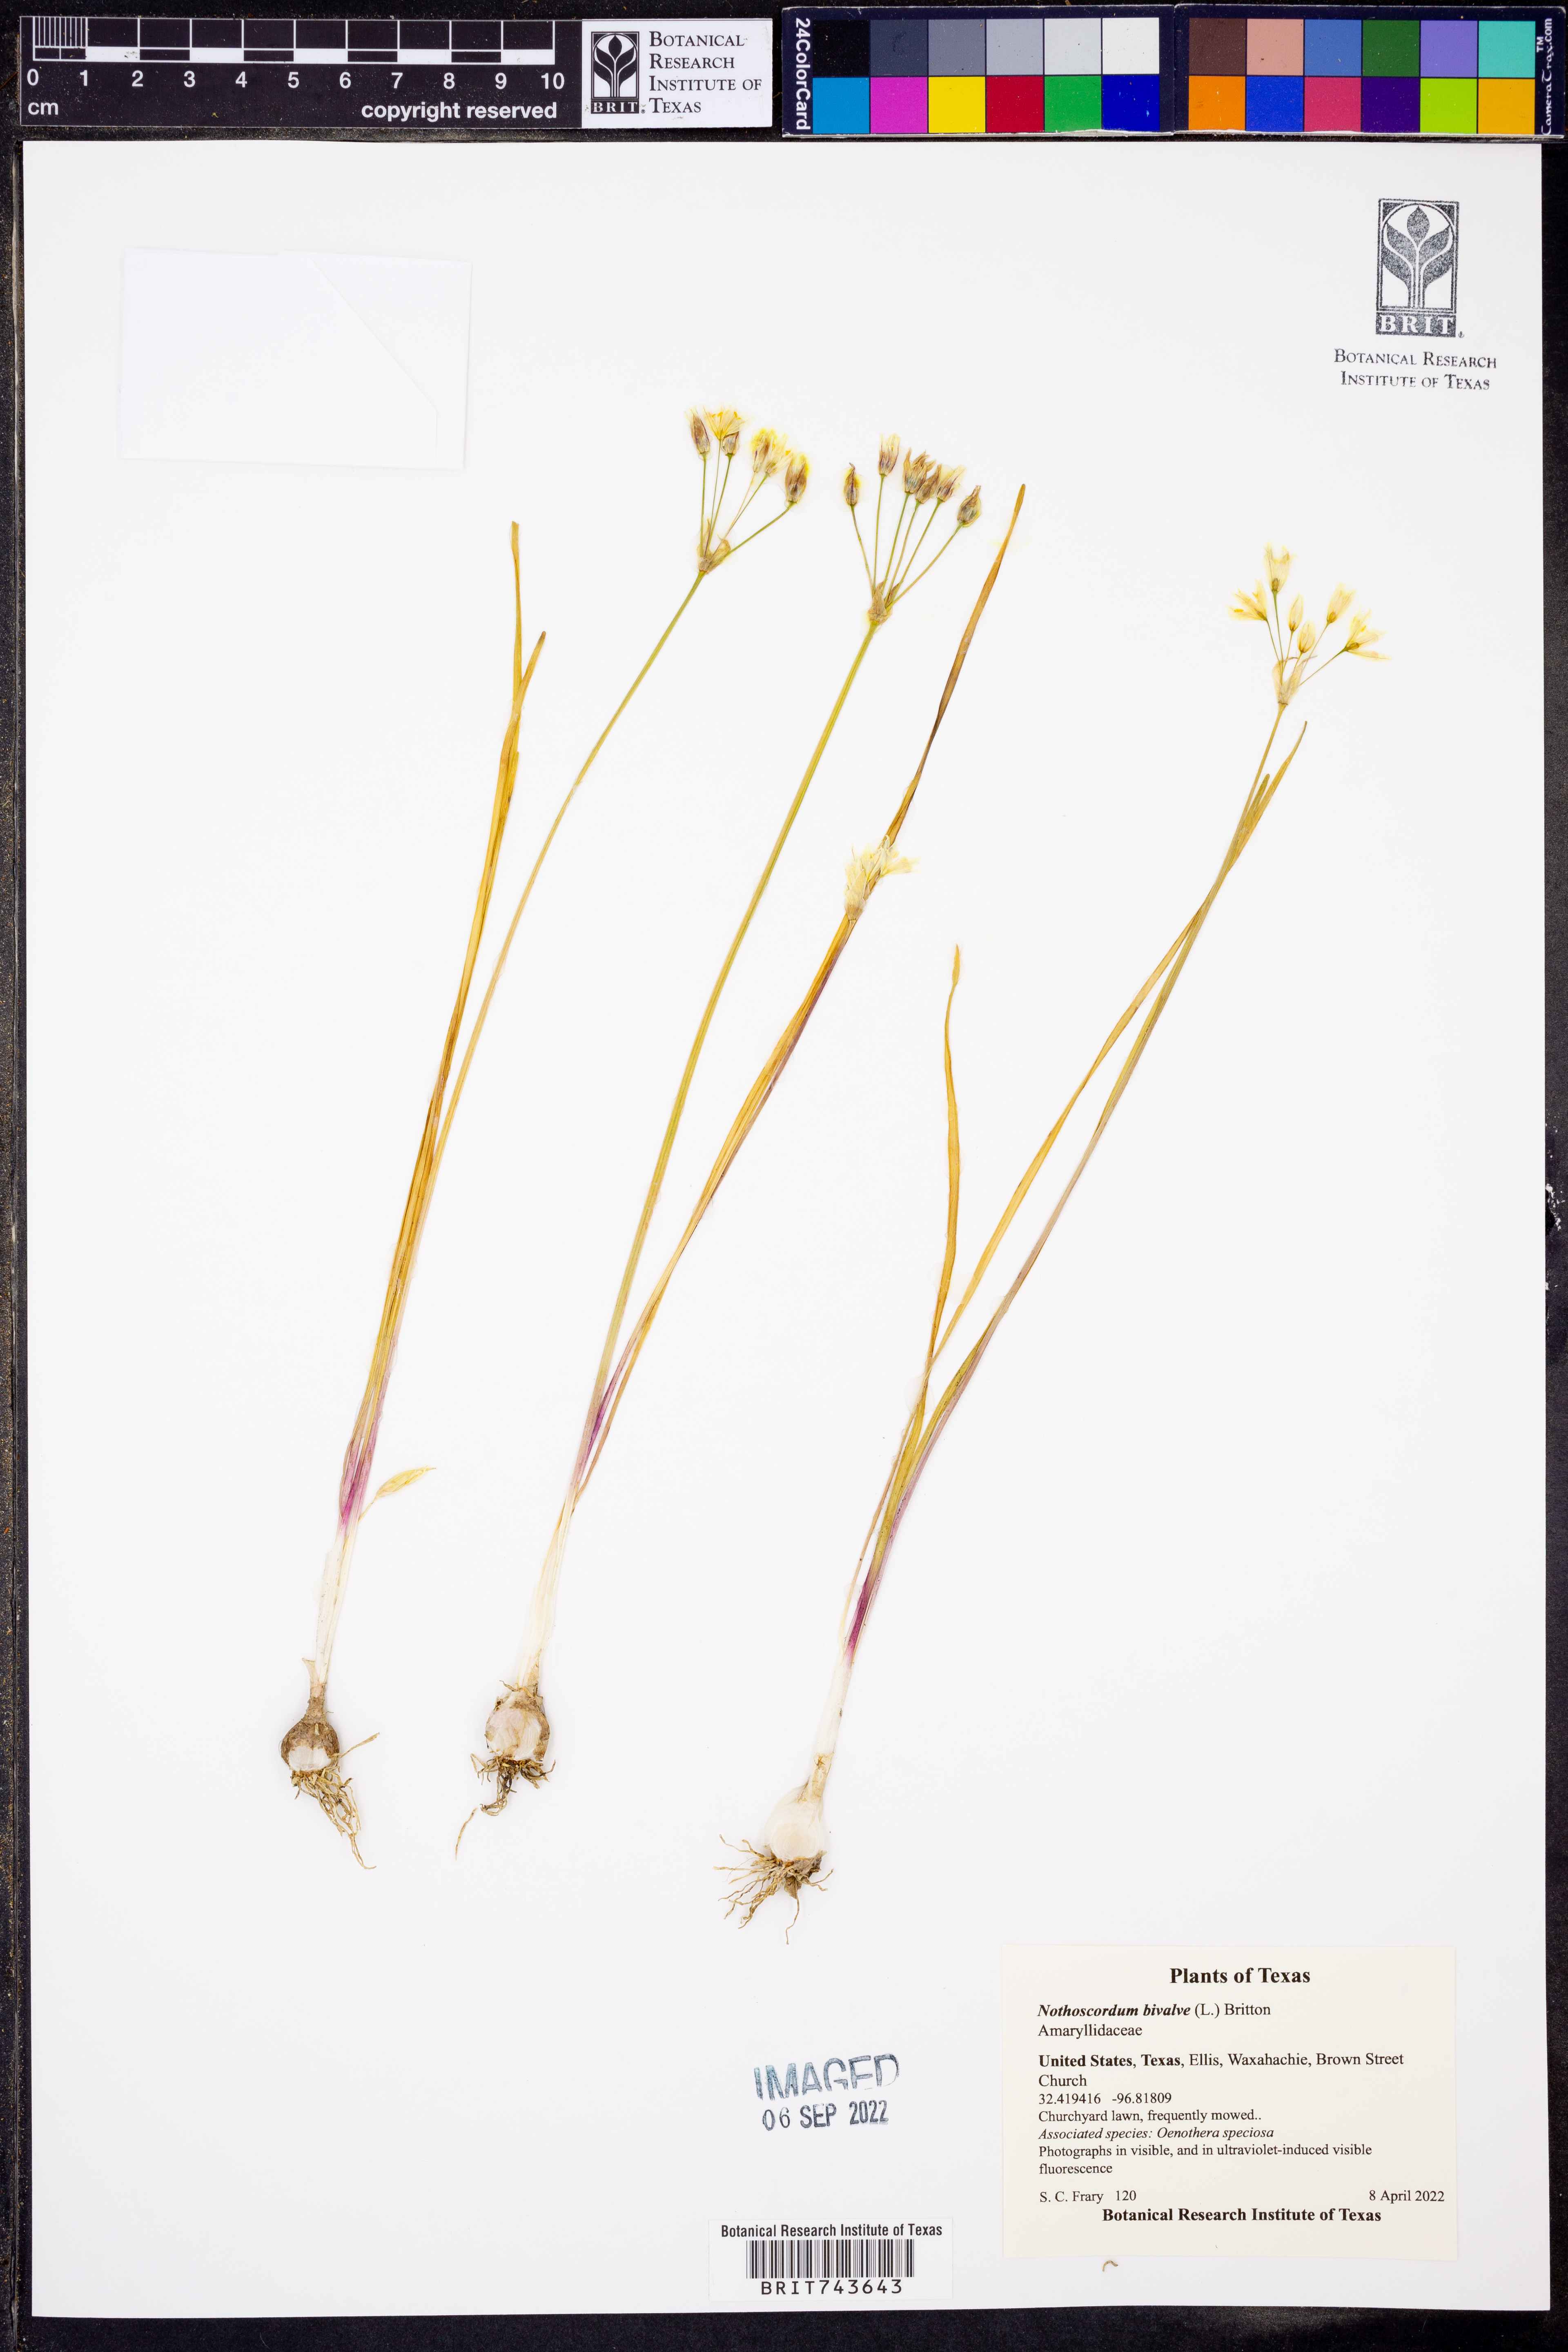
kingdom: Plantae
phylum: Tracheophyta
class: Liliopsida
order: Asparagales
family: Amaryllidaceae
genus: Nothoscordum
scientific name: Nothoscordum bivalve
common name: Crow-poison
